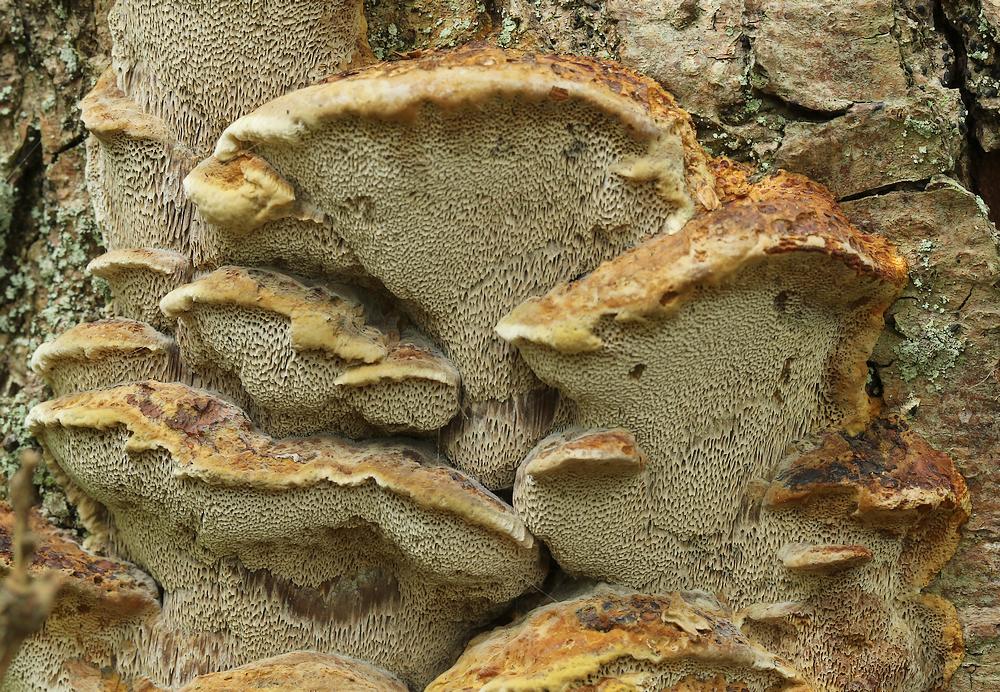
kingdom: Fungi
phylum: Basidiomycota
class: Agaricomycetes
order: Hymenochaetales
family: Hymenochaetaceae
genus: Xanthoporia
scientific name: Xanthoporia radiata
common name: elle-spejlporesvamp
